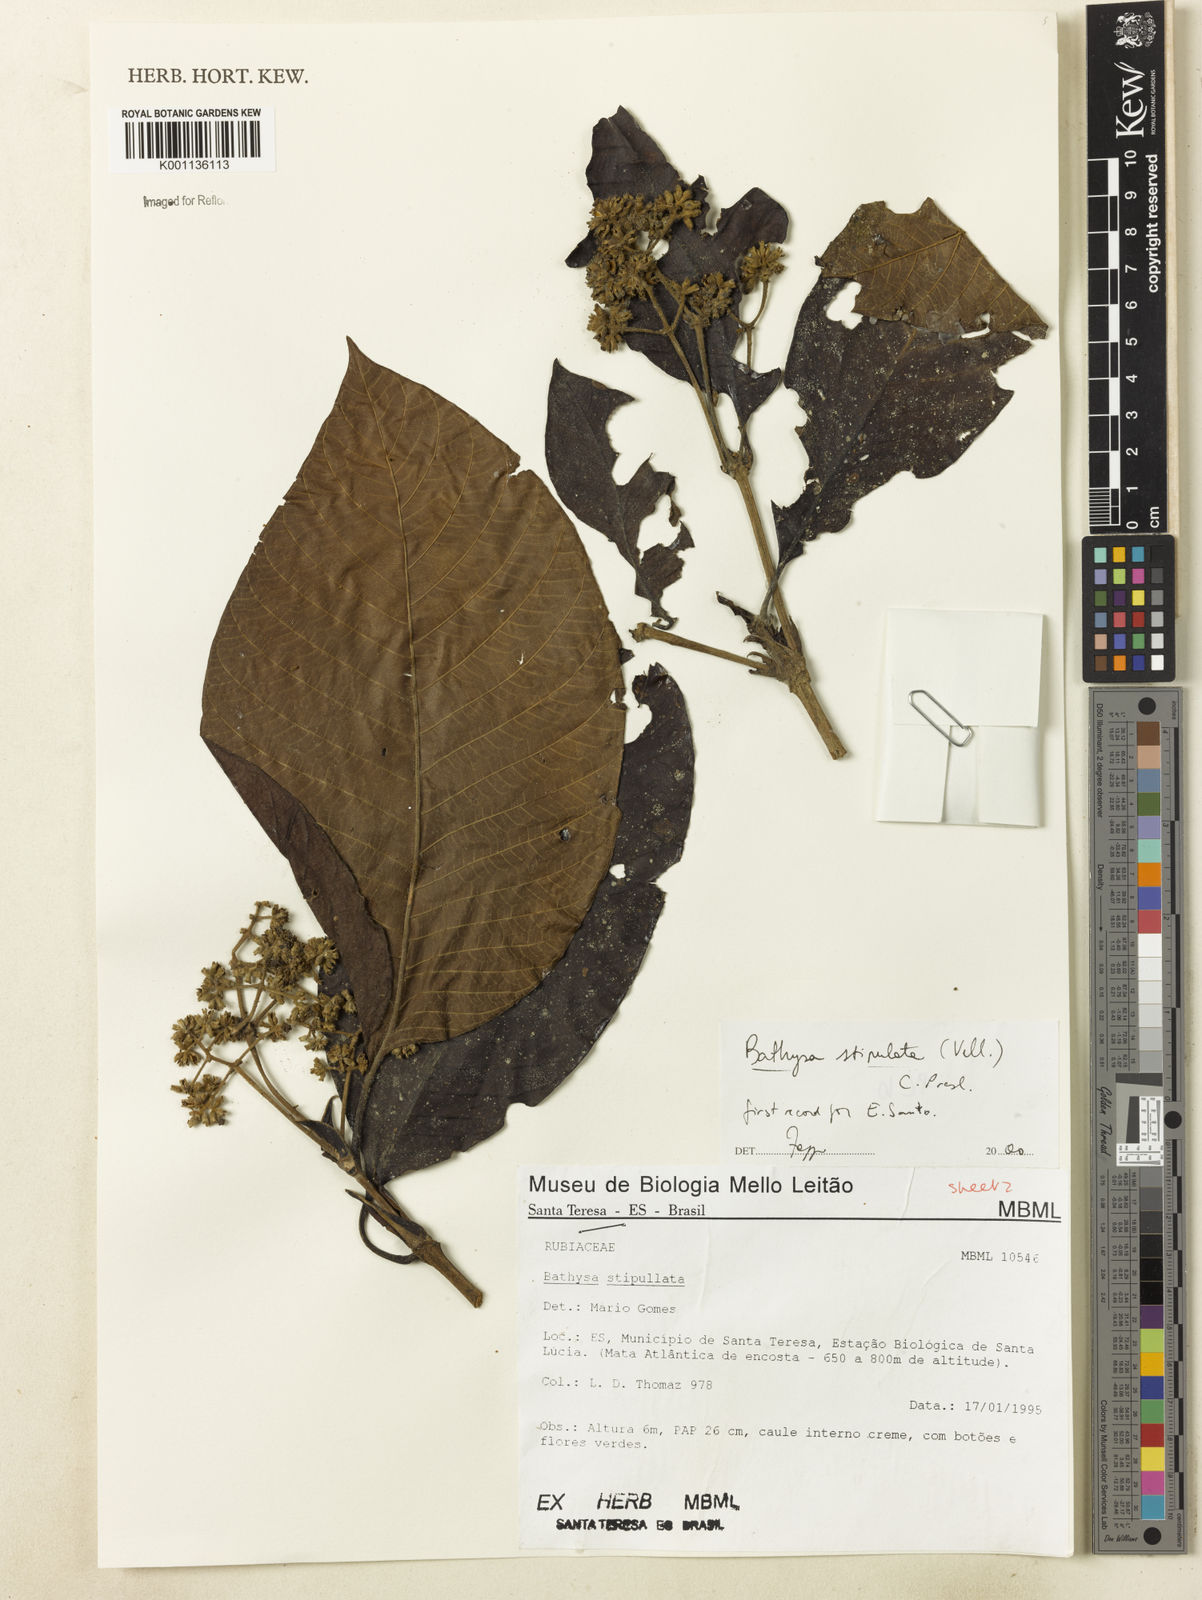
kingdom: Plantae
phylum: Tracheophyta
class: Magnoliopsida
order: Gentianales
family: Rubiaceae
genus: Bathysa
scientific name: Bathysa stipulata
